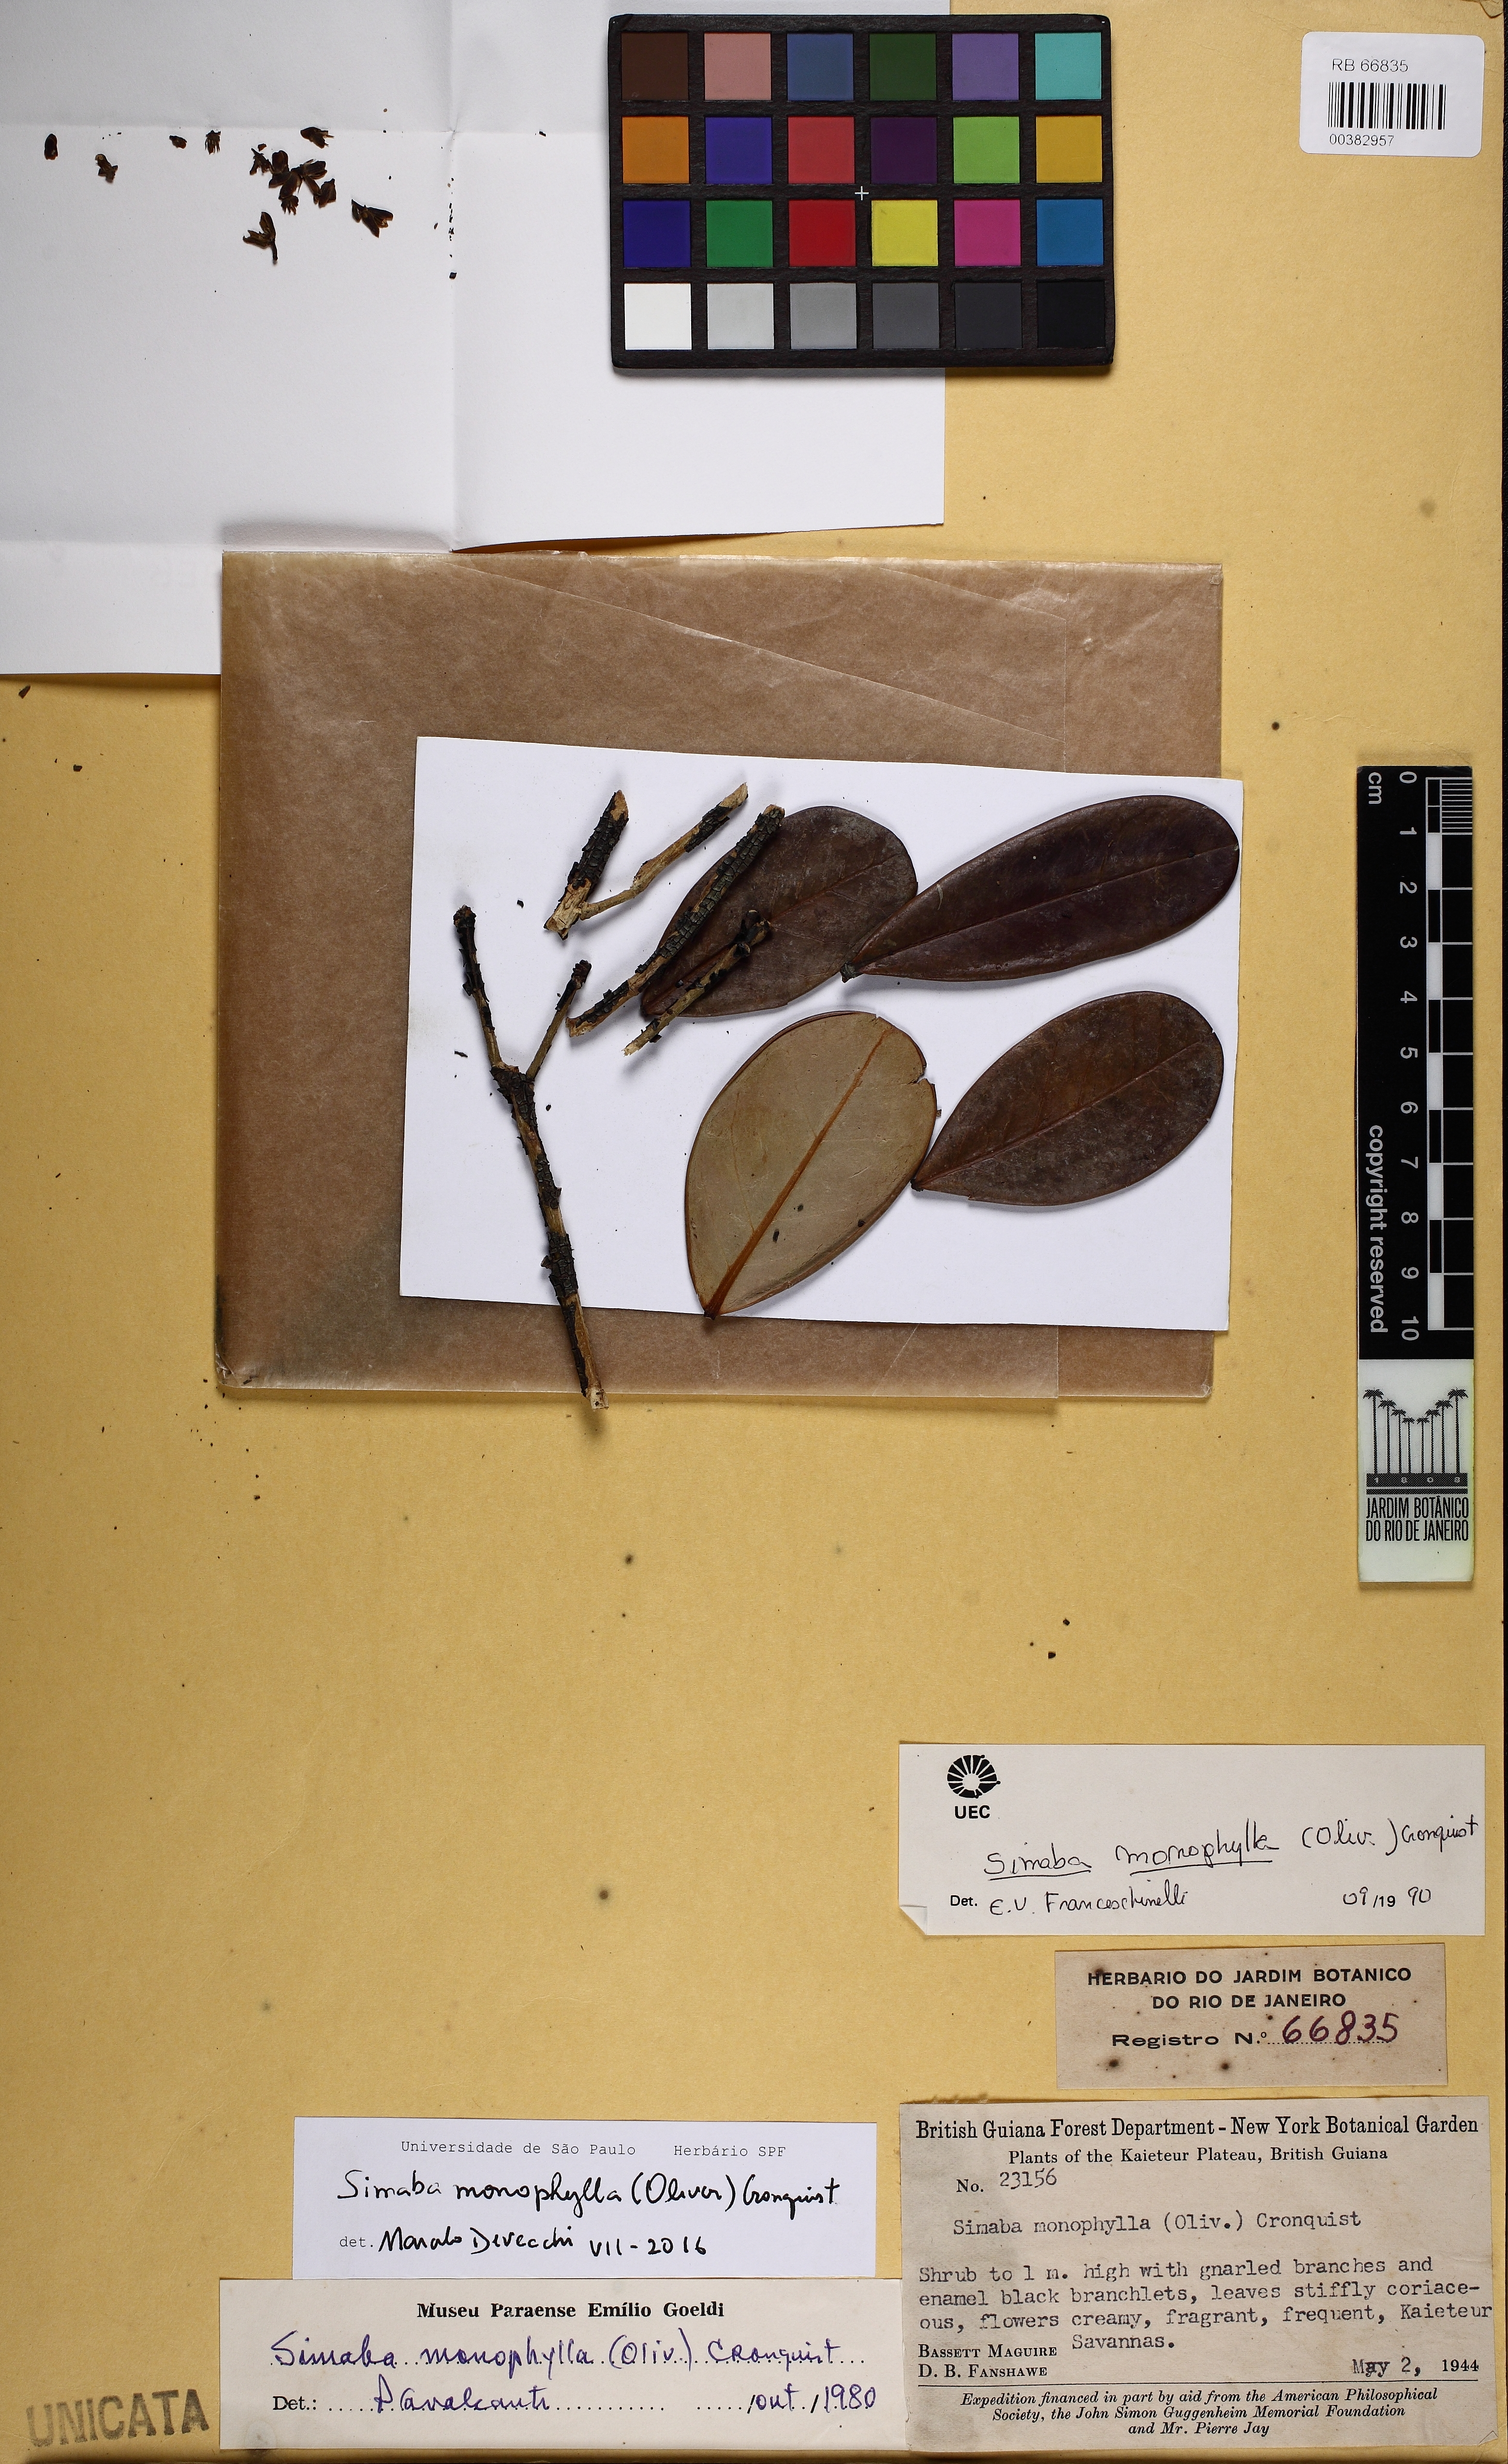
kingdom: Plantae
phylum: Tracheophyta
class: Magnoliopsida
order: Sapindales
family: Simaroubaceae
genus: Simaba
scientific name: Simaba monophylla
